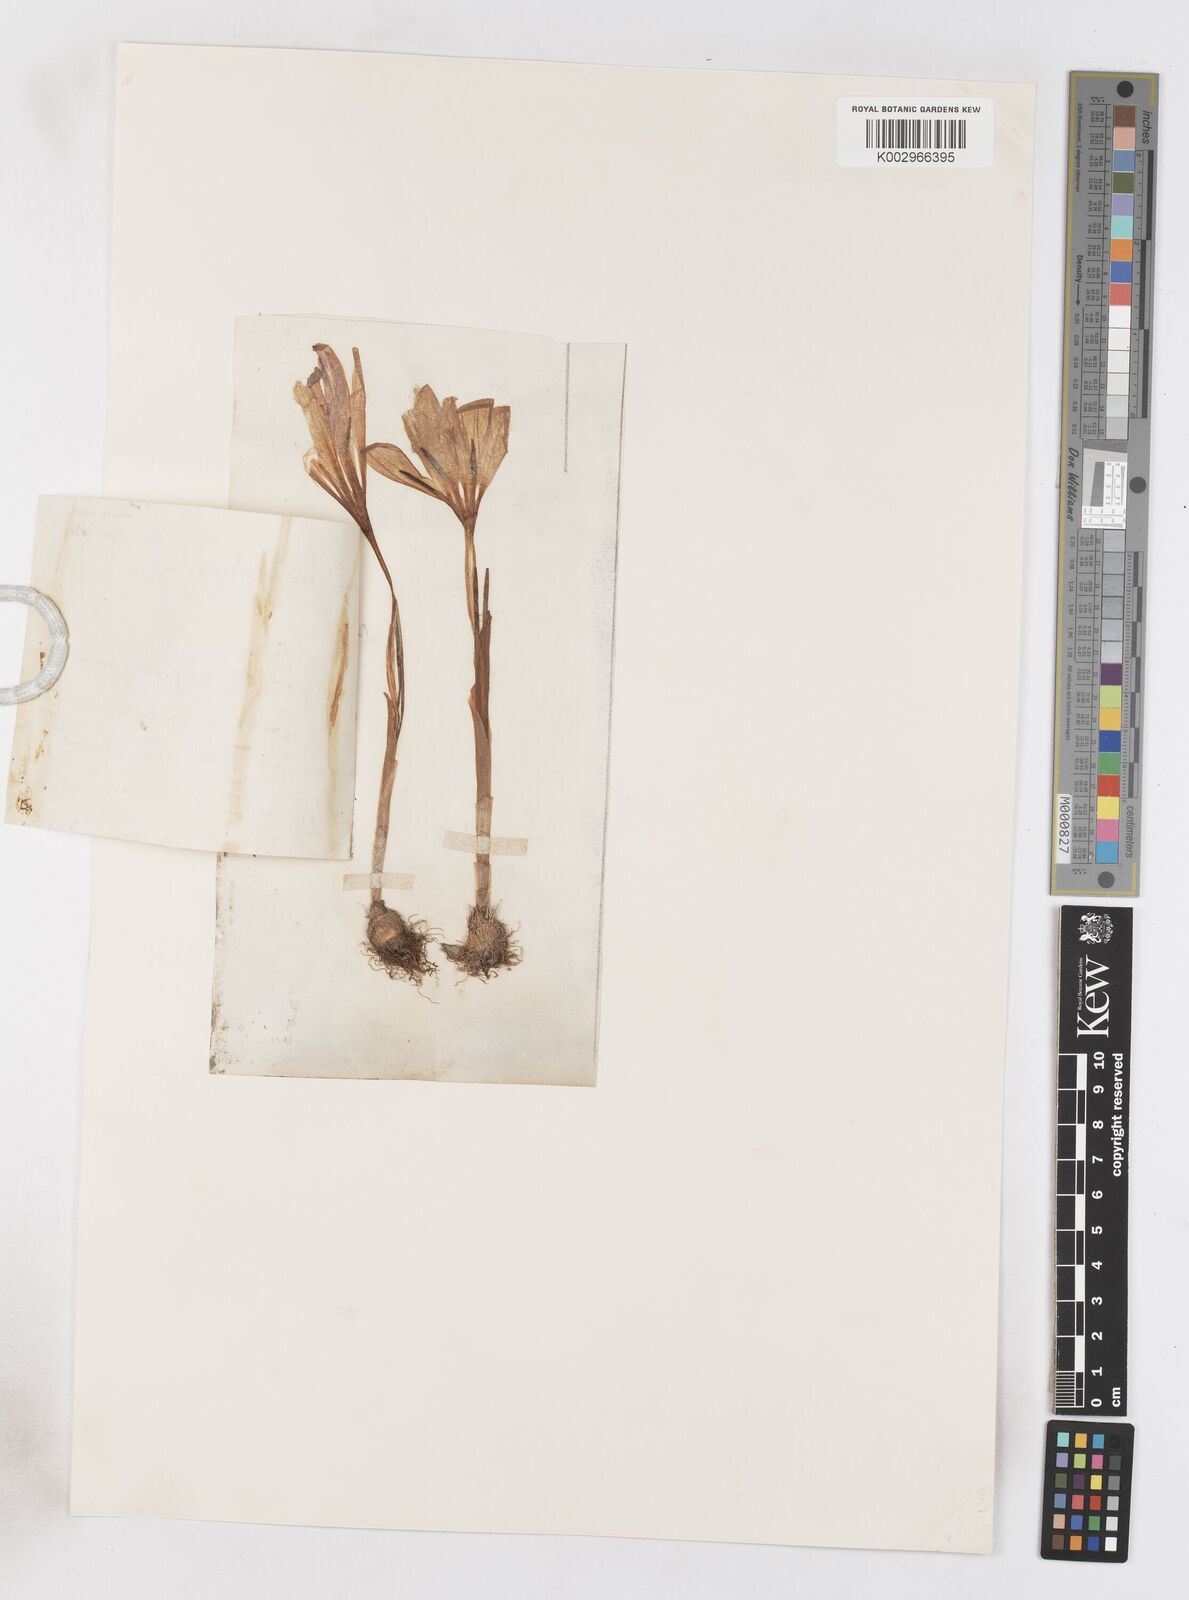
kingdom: Plantae
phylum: Tracheophyta
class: Liliopsida
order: Asparagales
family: Iridaceae
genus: Crocus
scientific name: Crocus vernus
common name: Spring crocus
